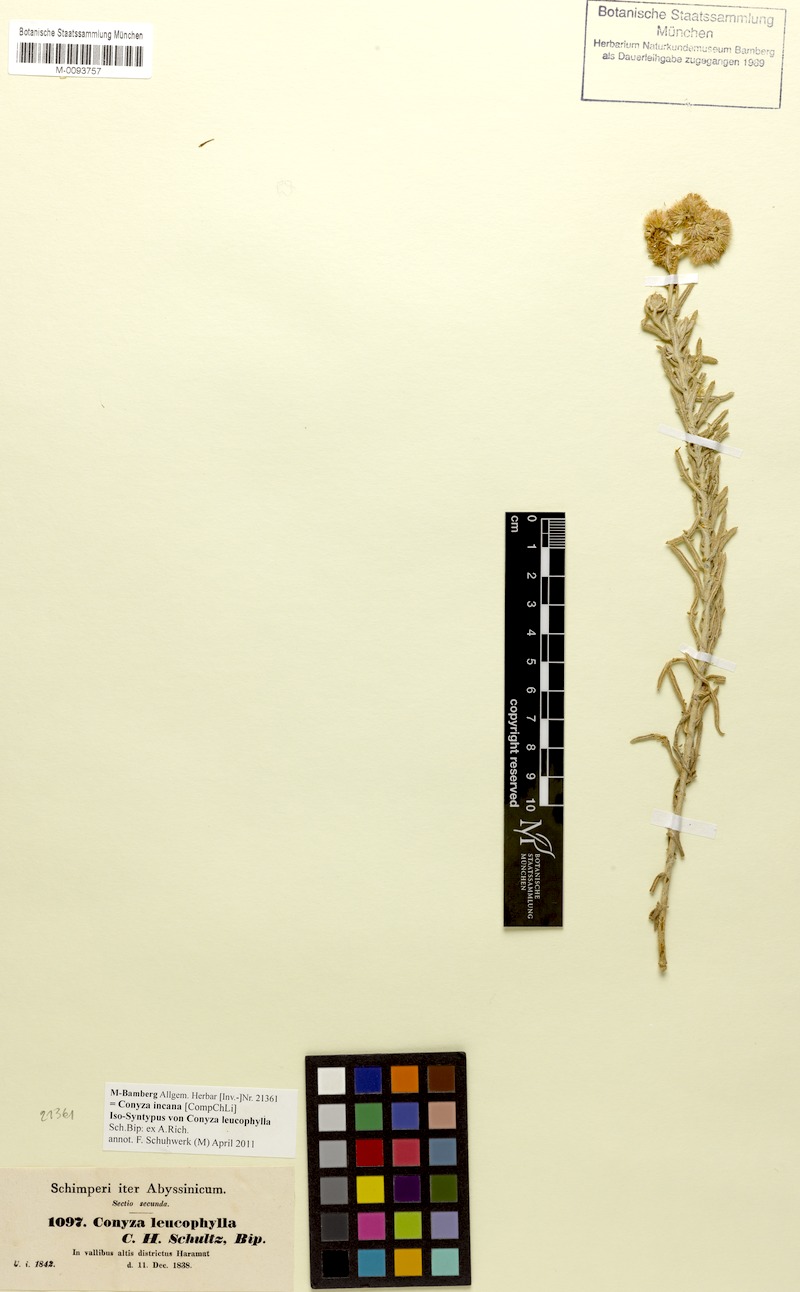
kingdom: Plantae
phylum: Tracheophyta
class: Magnoliopsida
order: Asterales
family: Asteraceae
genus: Cyanthillium
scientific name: Cyanthillium cinereum
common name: Little ironweed
